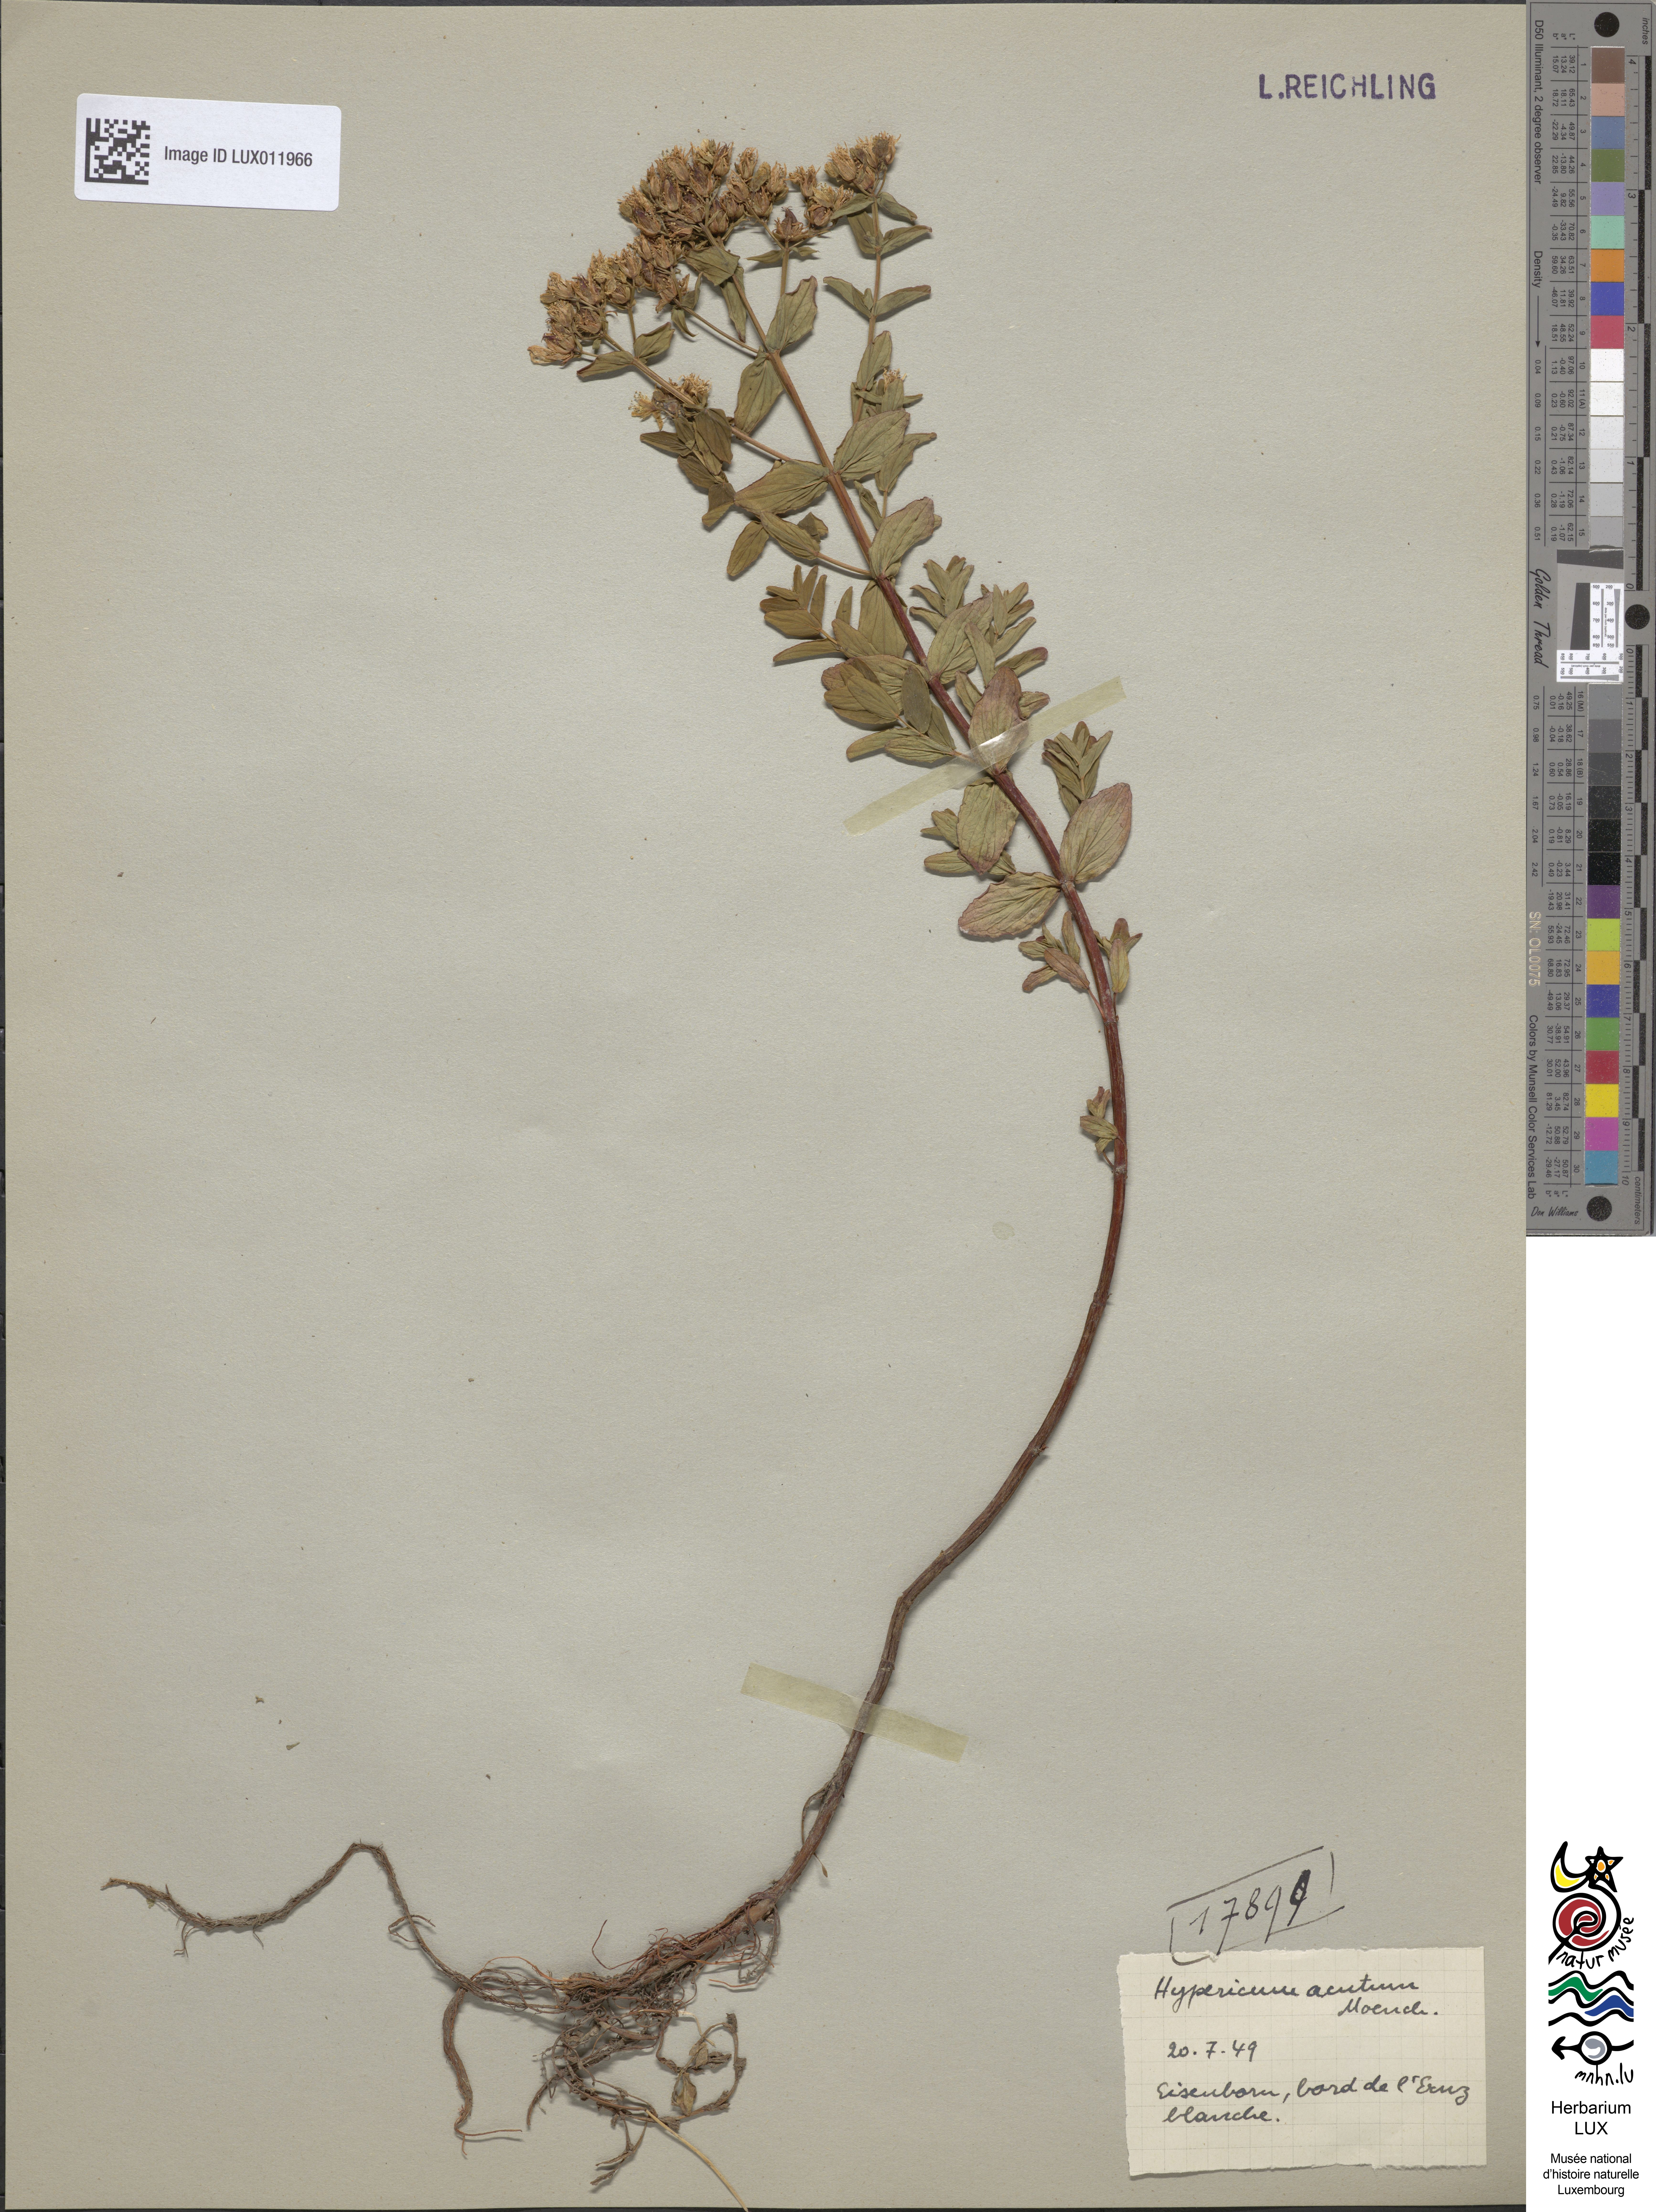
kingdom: Plantae
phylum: Tracheophyta
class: Magnoliopsida
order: Malpighiales
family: Hypericaceae
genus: Hypericum
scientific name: Hypericum tetrapterum
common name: Square-stalked st. john's-wort
